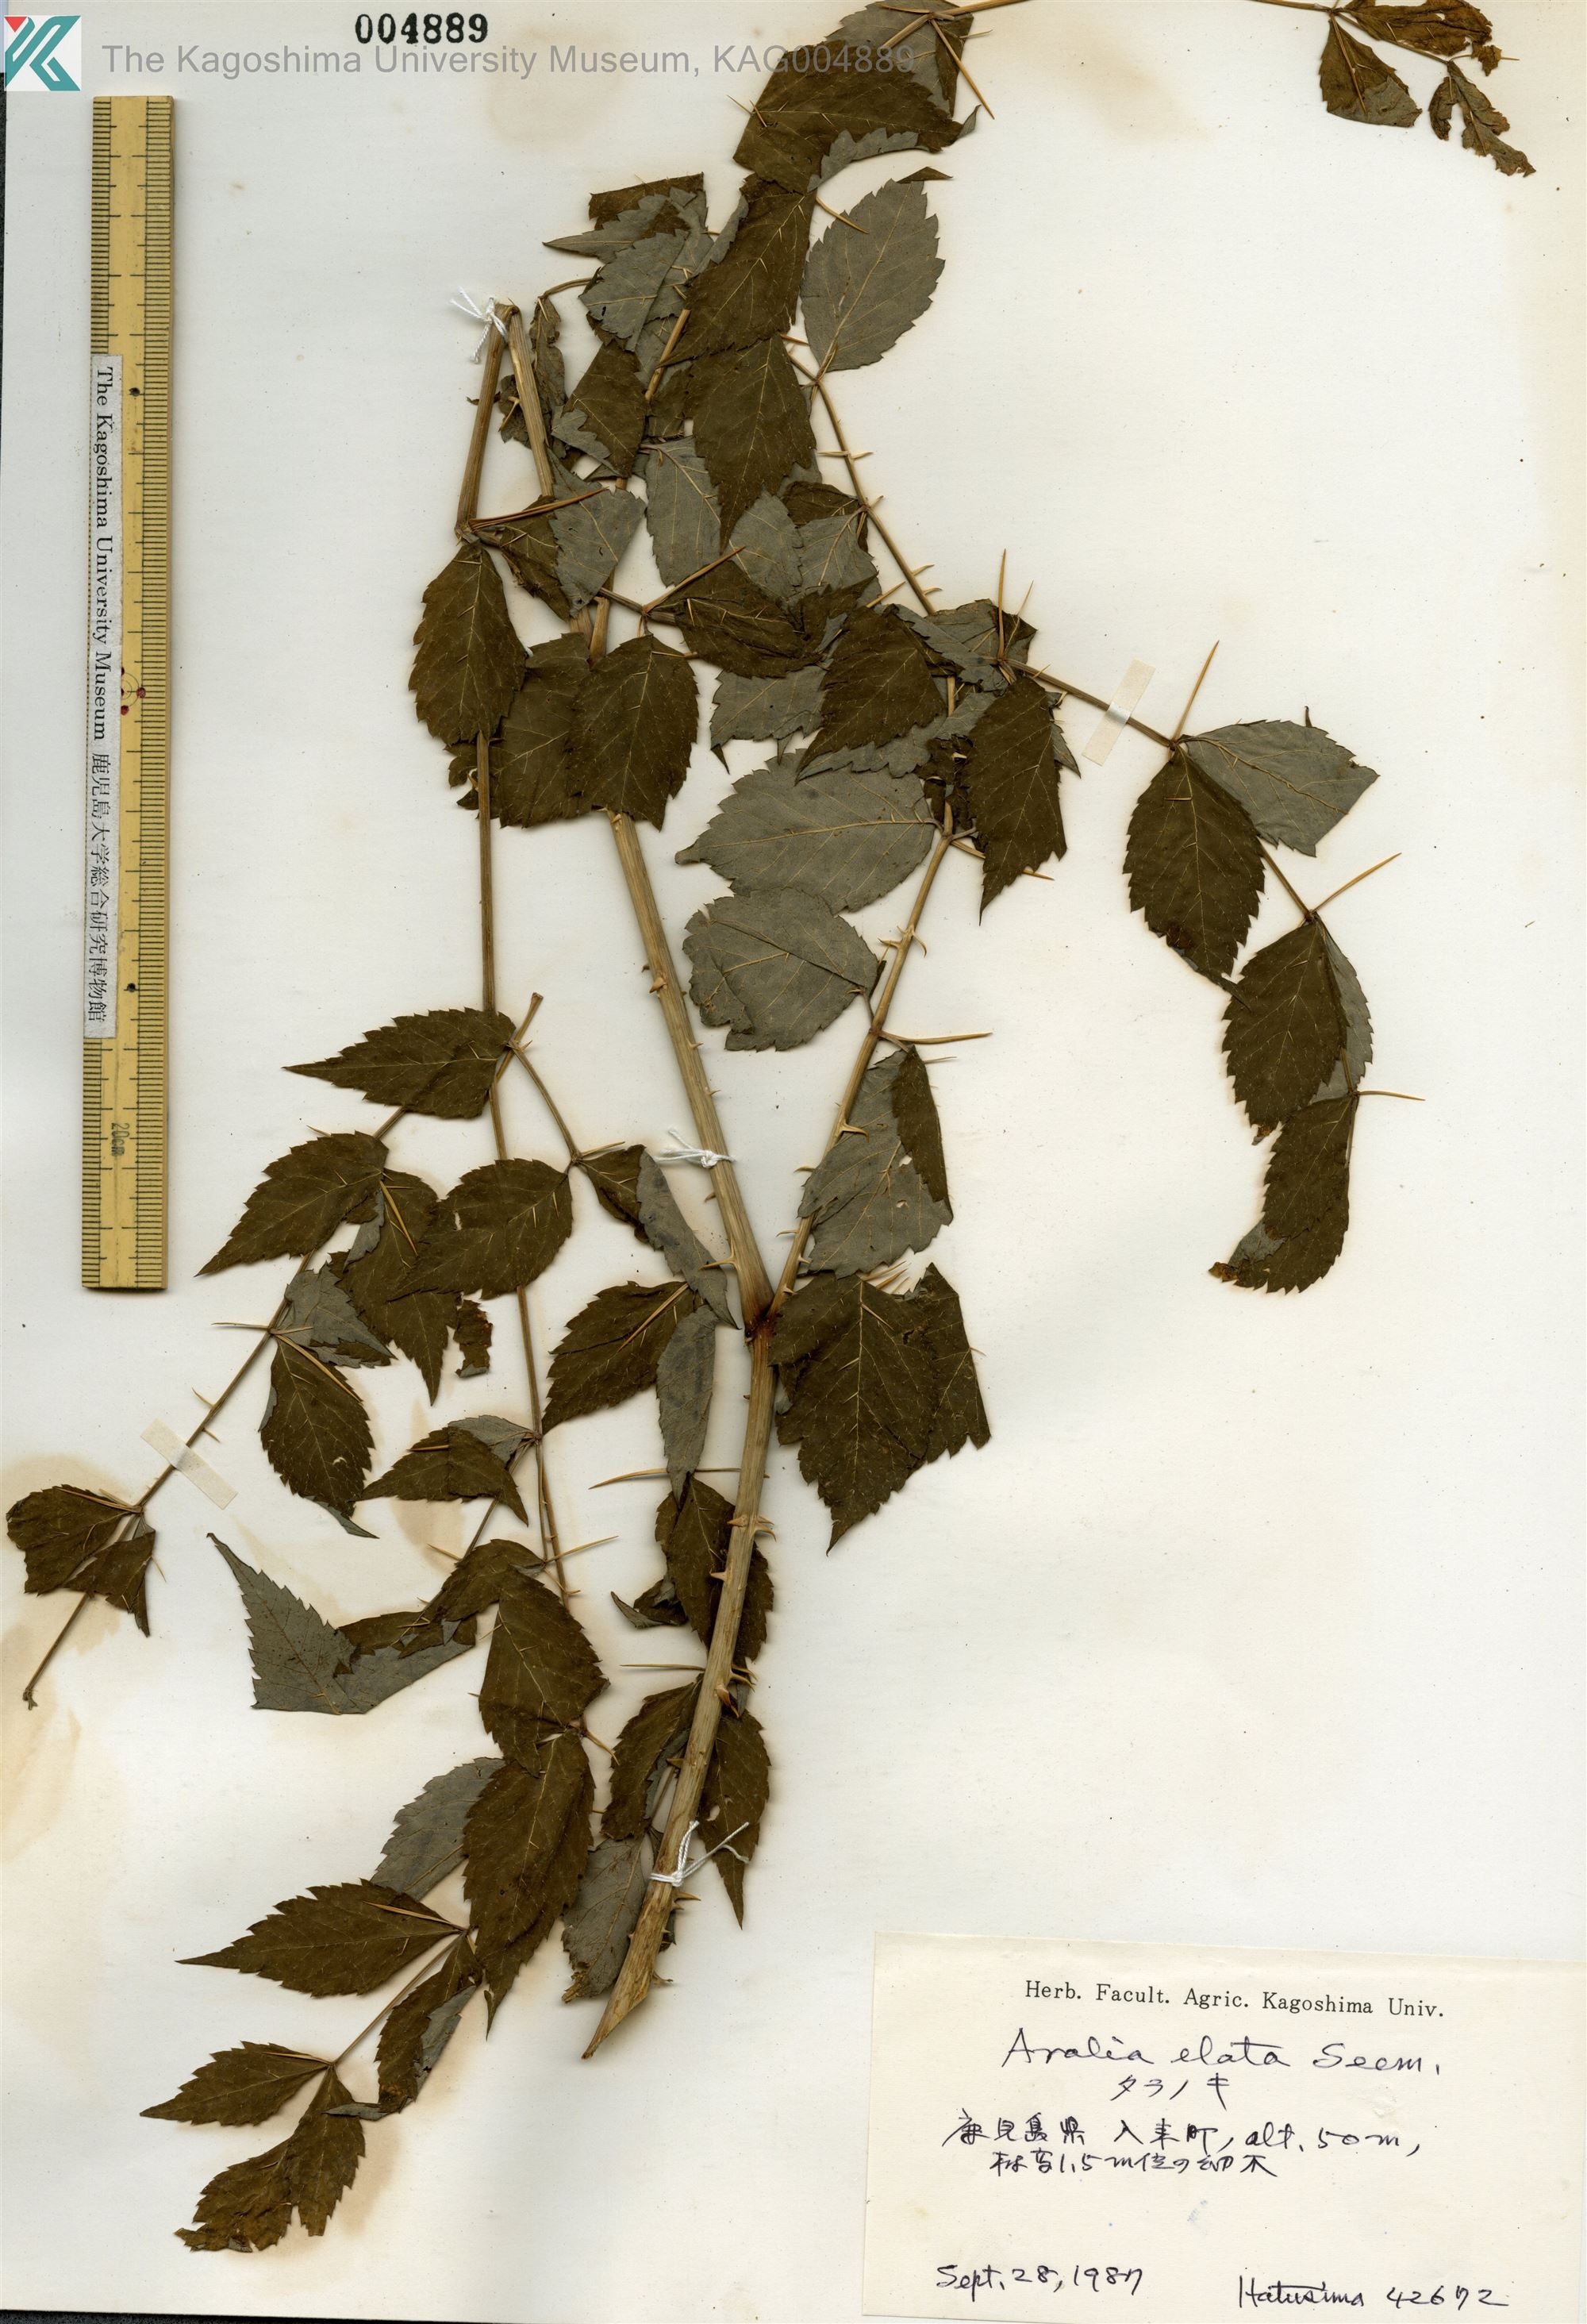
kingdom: Plantae
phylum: Tracheophyta
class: Magnoliopsida
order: Apiales
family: Araliaceae
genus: Aralia
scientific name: Aralia elata
